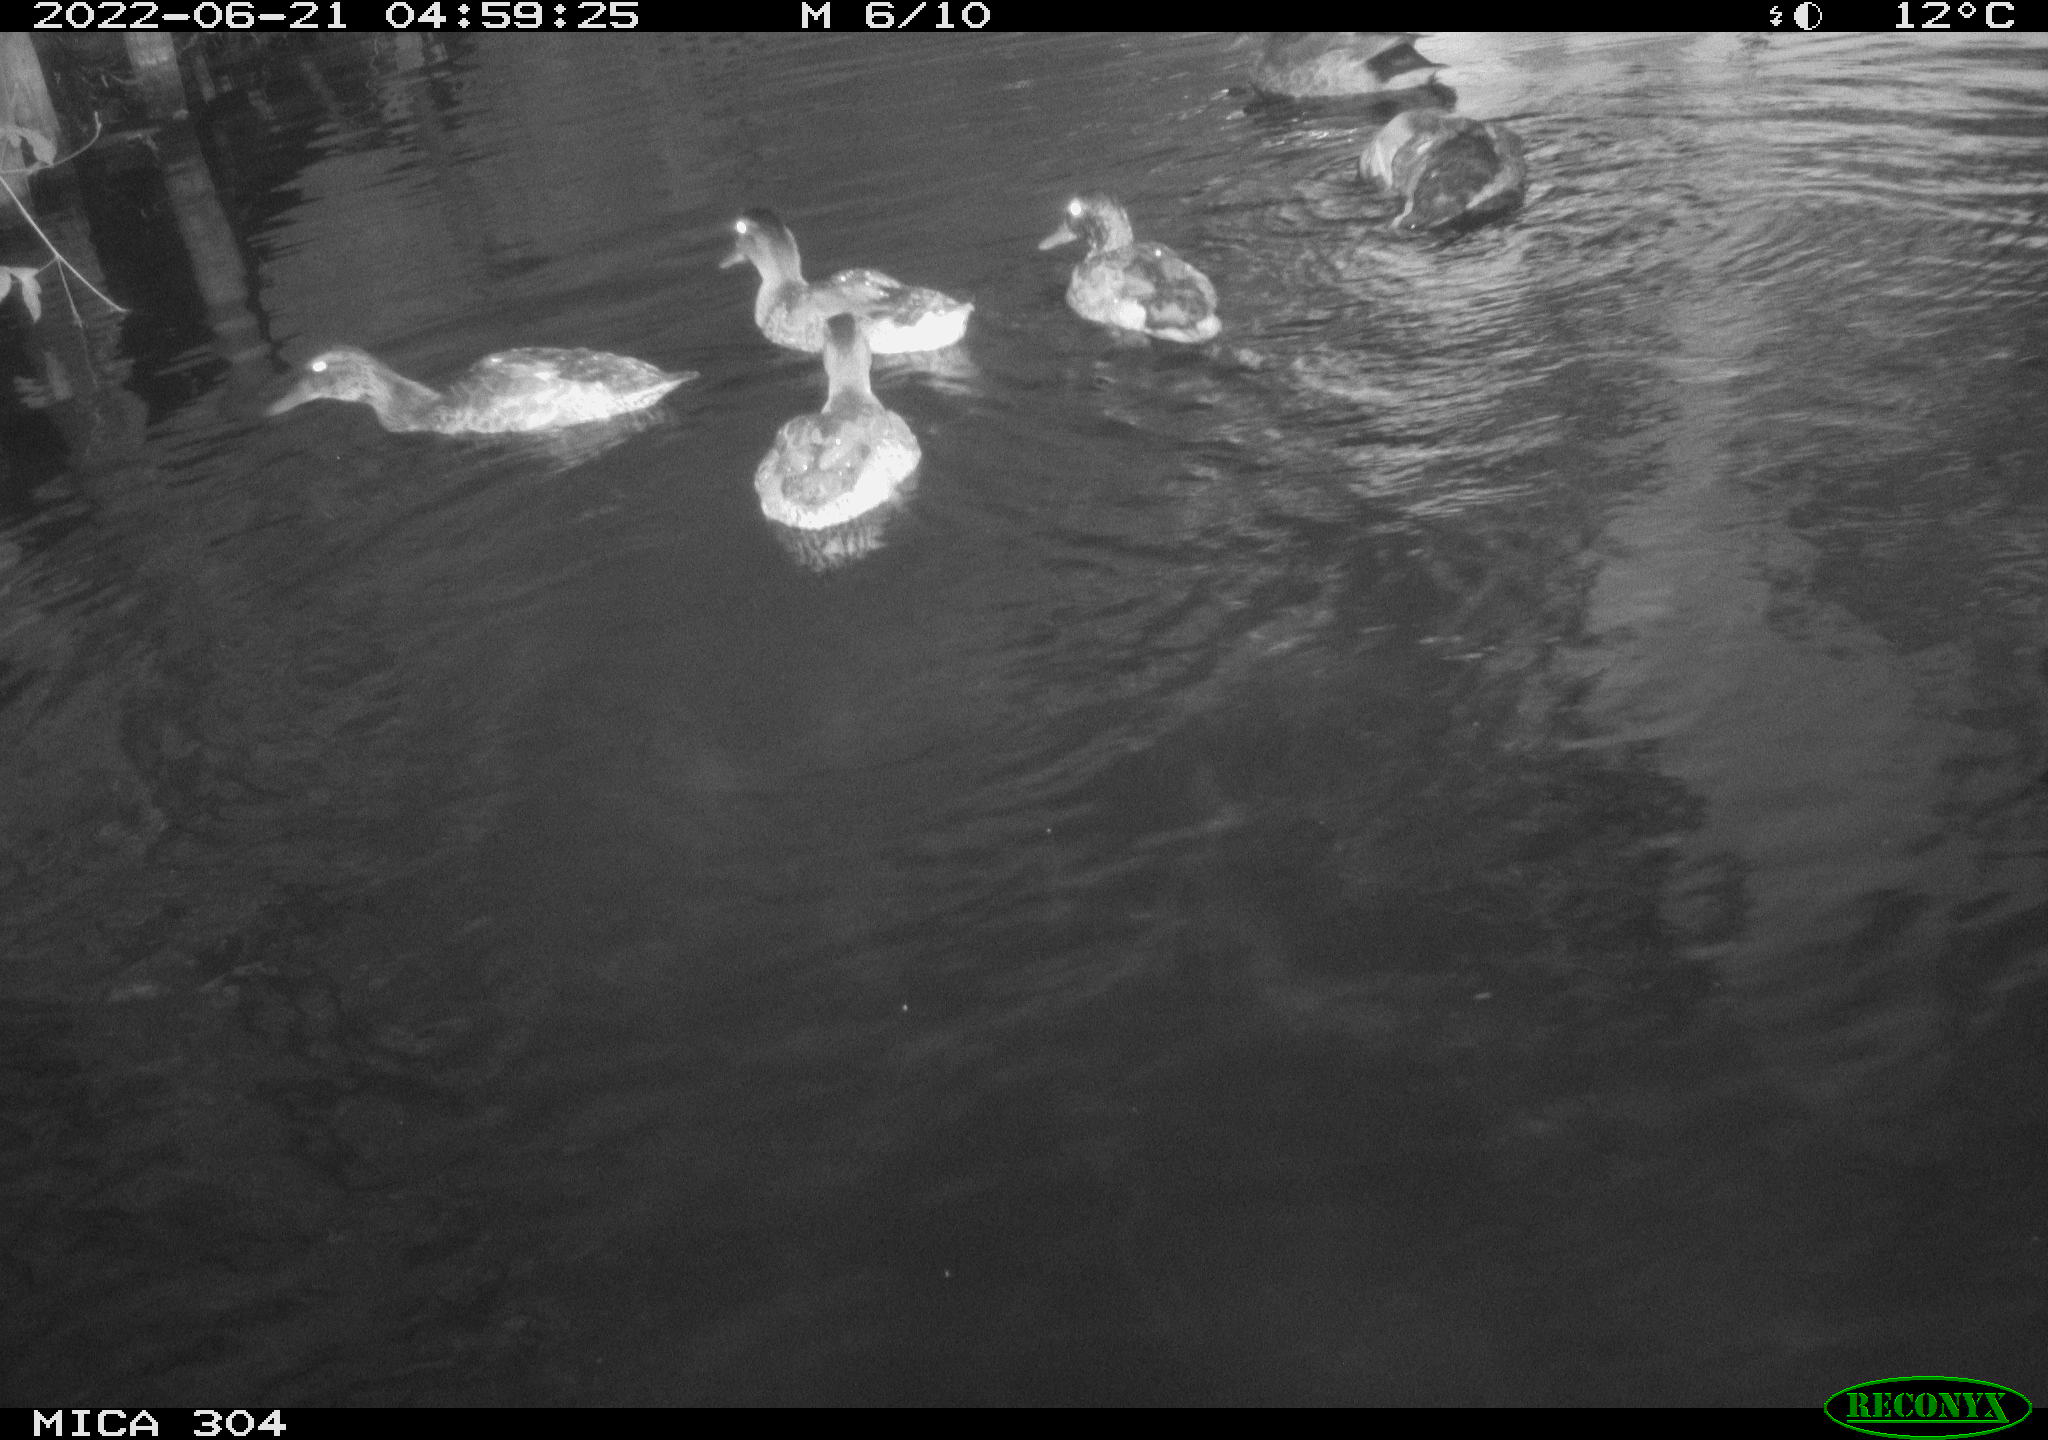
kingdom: Animalia
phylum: Chordata
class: Aves
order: Anseriformes
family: Anatidae
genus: Mareca
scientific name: Mareca strepera
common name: Gadwall
